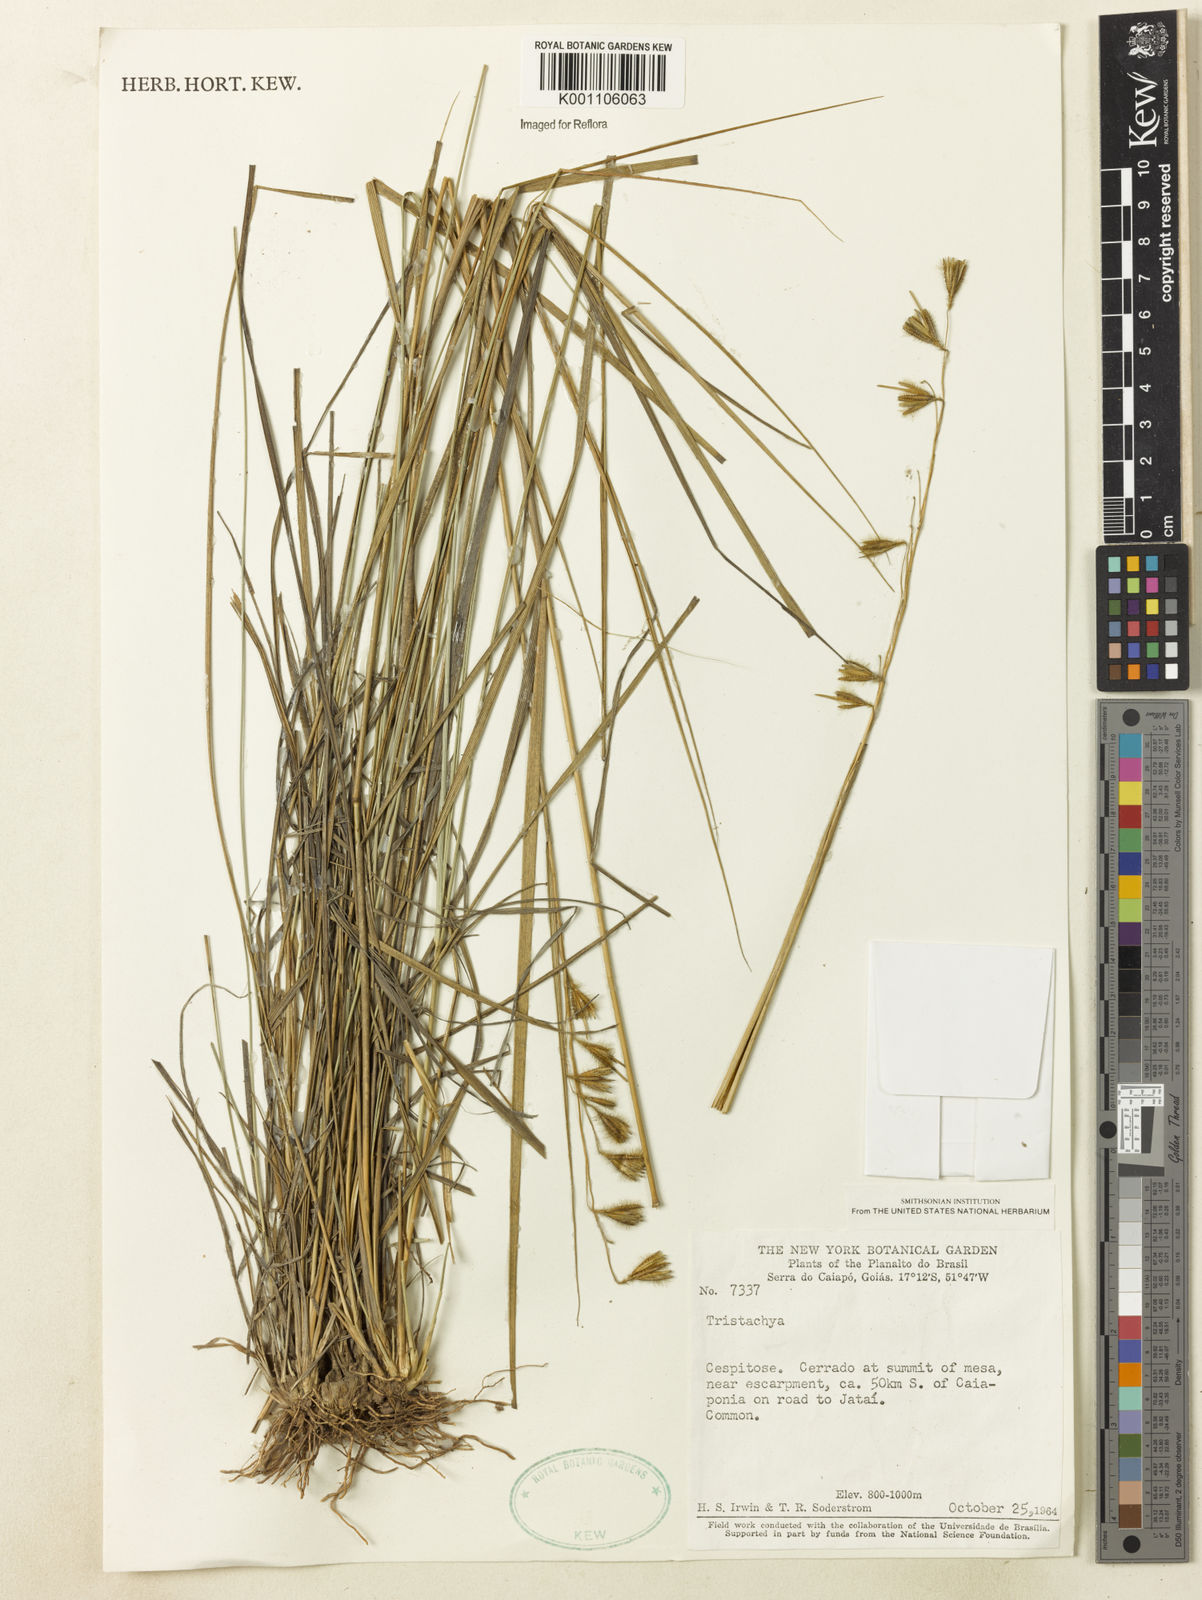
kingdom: Plantae
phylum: Tracheophyta
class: Liliopsida
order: Poales
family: Poaceae
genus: Tristachya
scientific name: Tristachya
